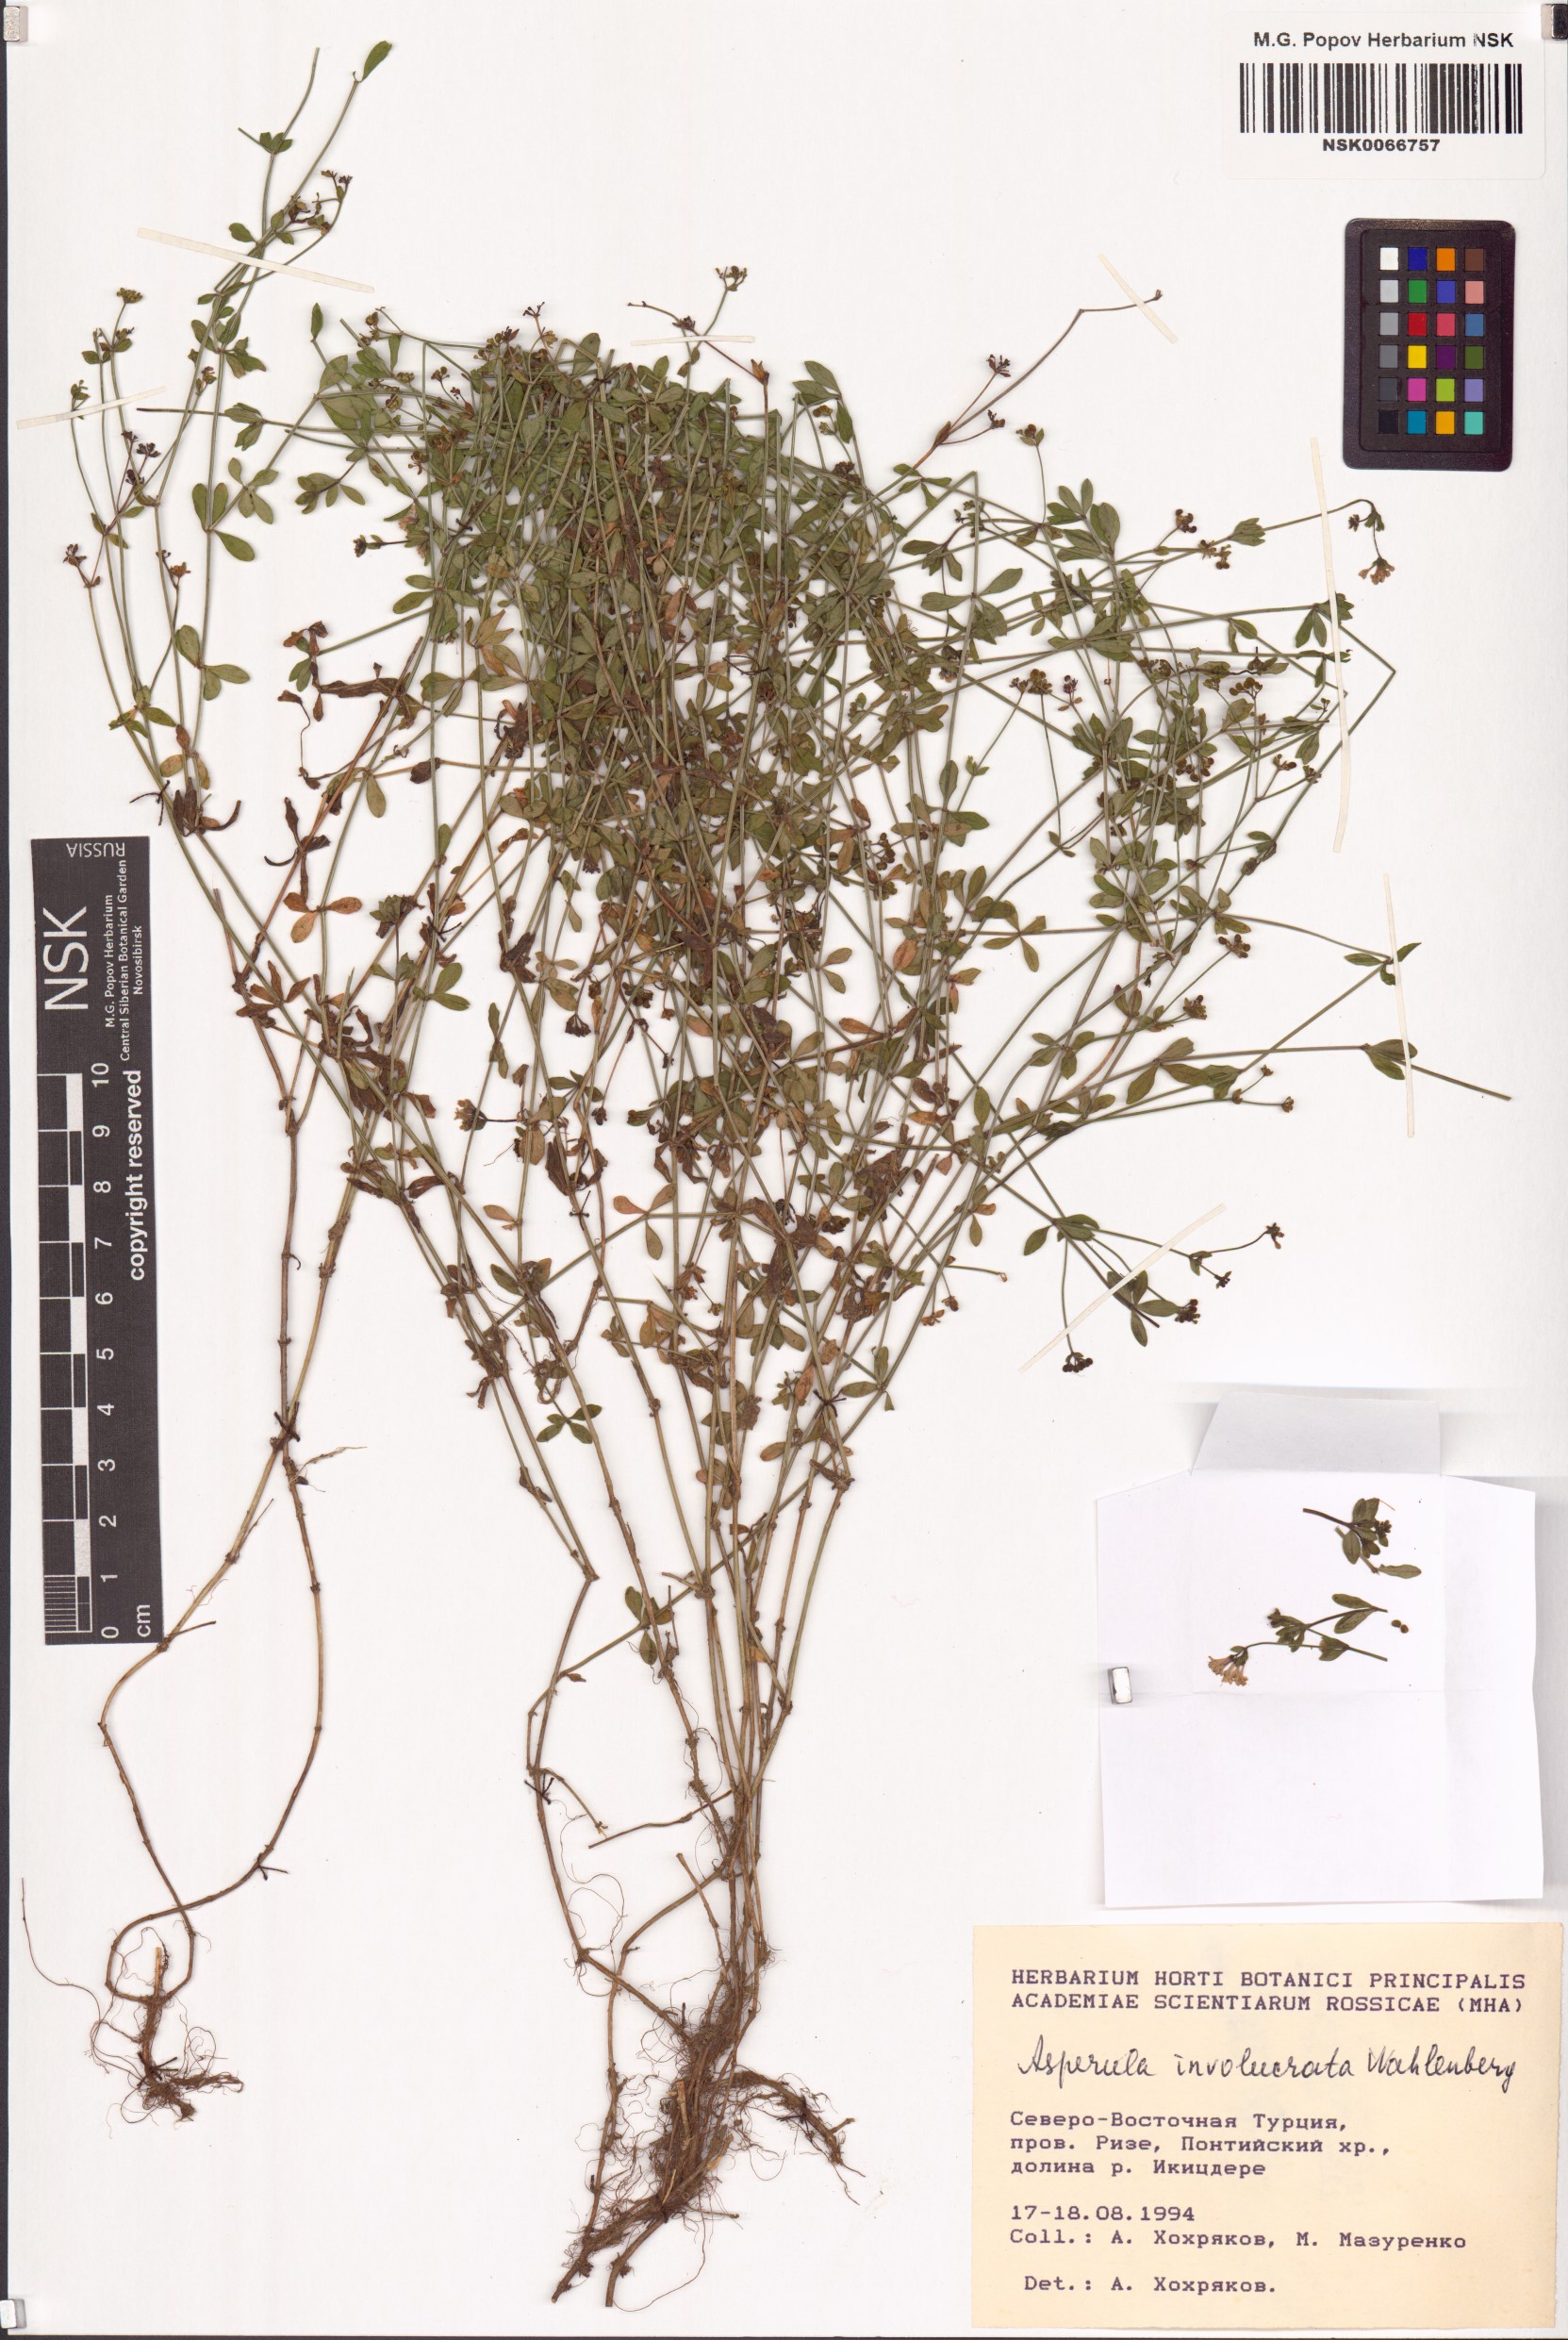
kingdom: Plantae
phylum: Tracheophyta
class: Magnoliopsida
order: Gentianales
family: Rubiaceae
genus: Asperula
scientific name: Asperula involucrata
